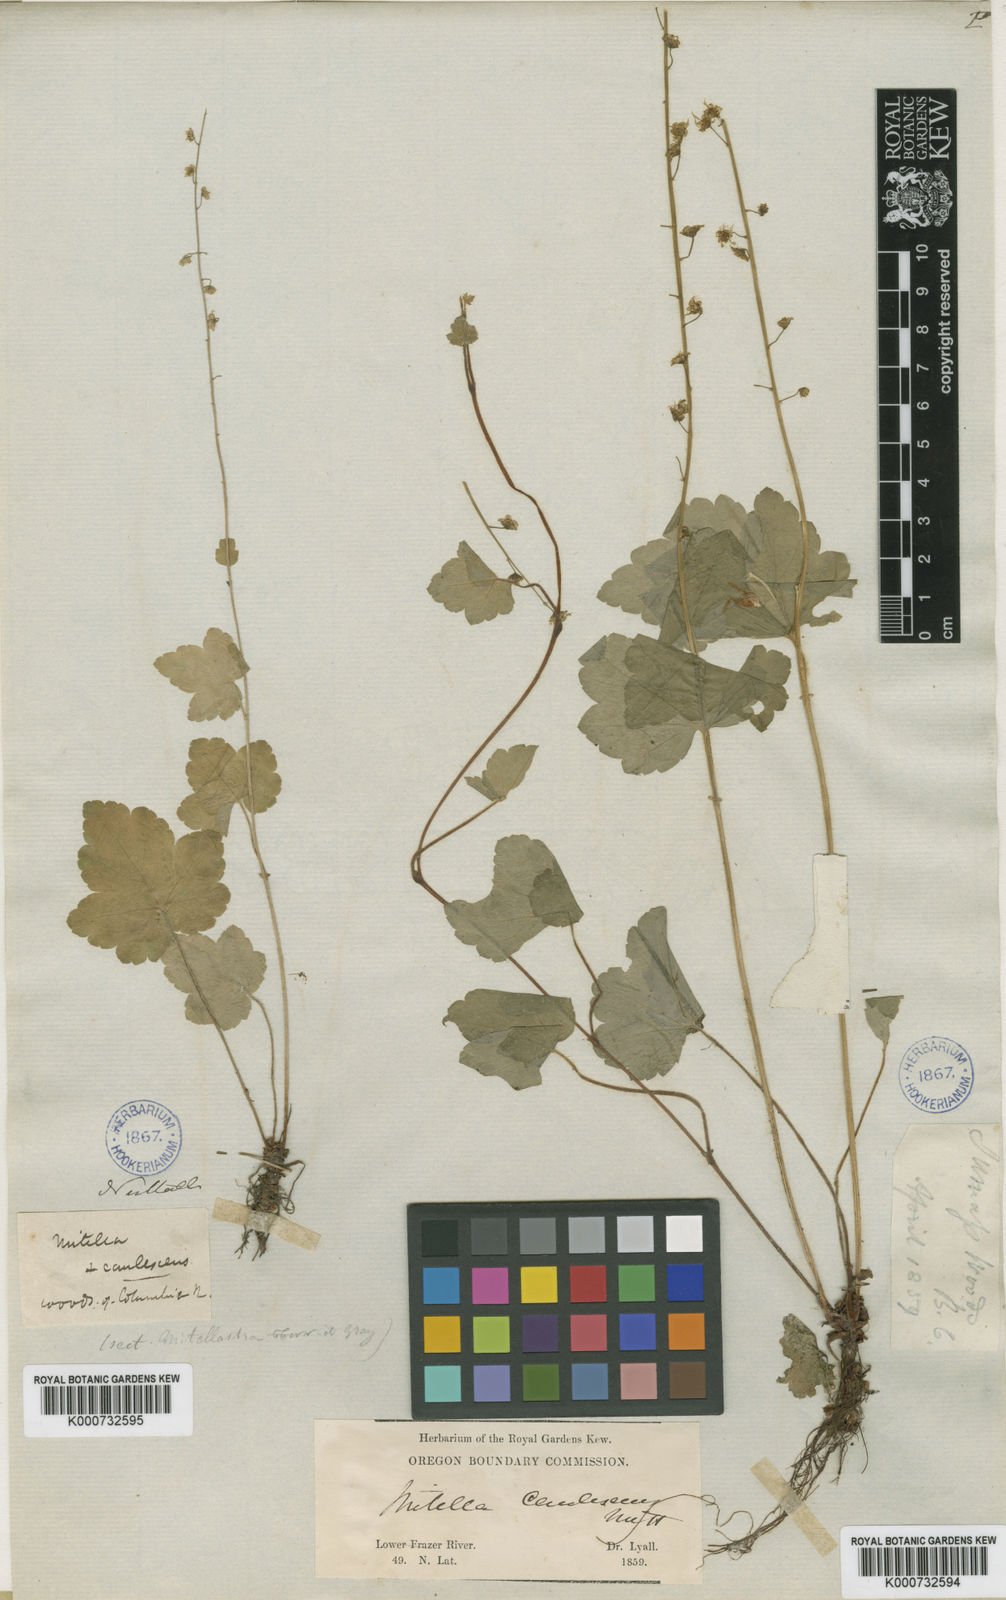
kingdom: Plantae
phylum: Tracheophyta
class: Magnoliopsida
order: Saxifragales
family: Saxifragaceae
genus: Mitellastra
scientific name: Mitellastra caulescens
